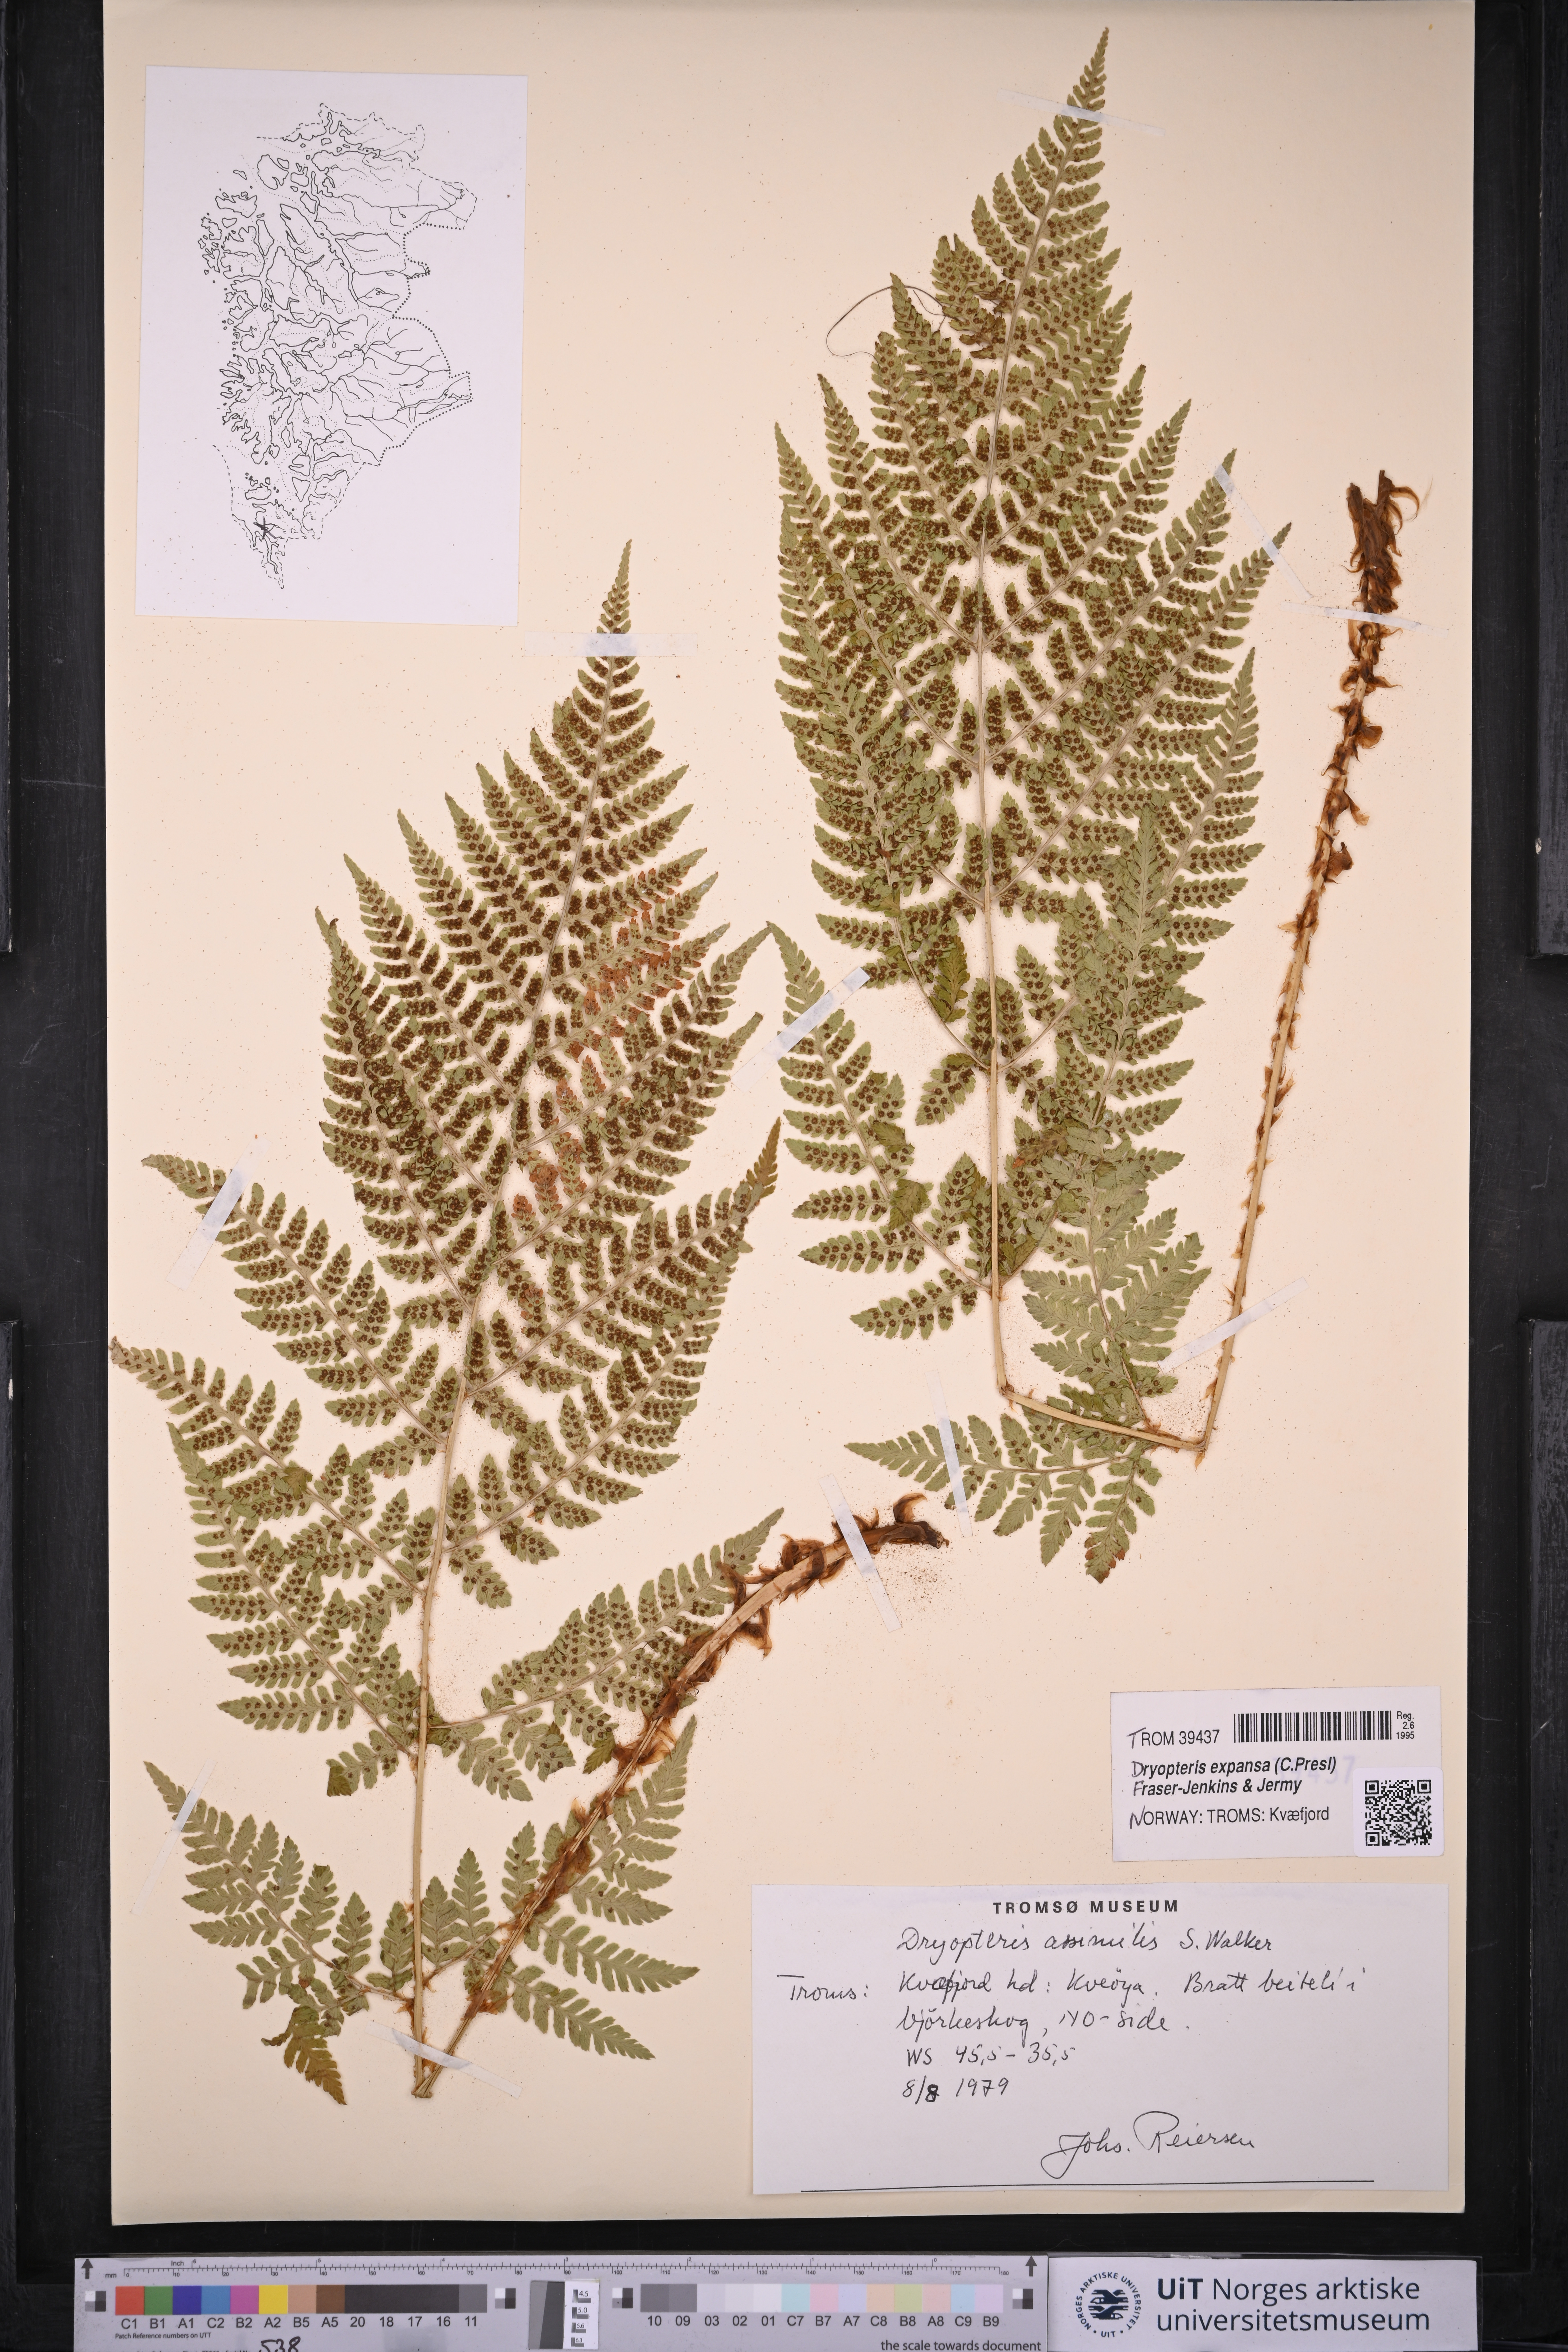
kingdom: Plantae
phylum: Tracheophyta
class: Polypodiopsida
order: Polypodiales
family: Dryopteridaceae
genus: Dryopteris
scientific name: Dryopteris expansa
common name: Northern buckler fern
